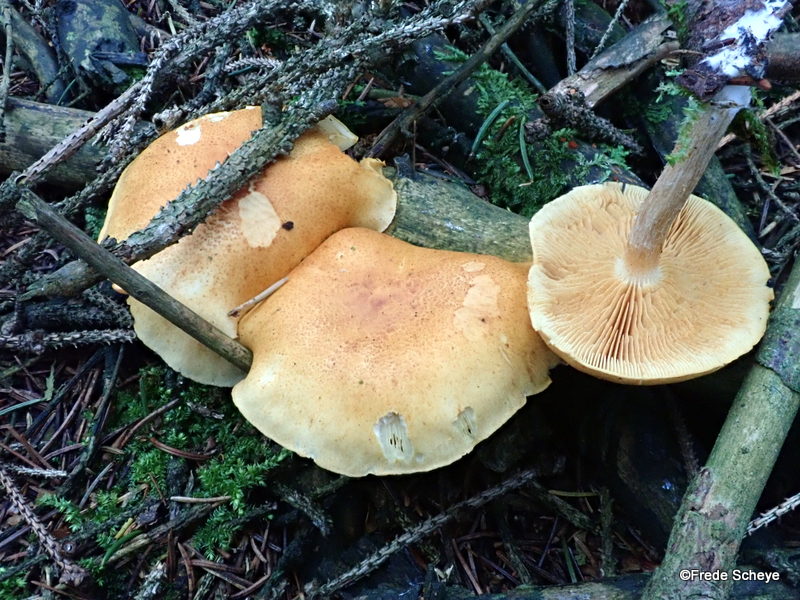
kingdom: Fungi
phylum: Basidiomycota
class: Agaricomycetes
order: Agaricales
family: Hymenogastraceae
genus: Gymnopilus
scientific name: Gymnopilus penetrans
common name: plettet flammehat
